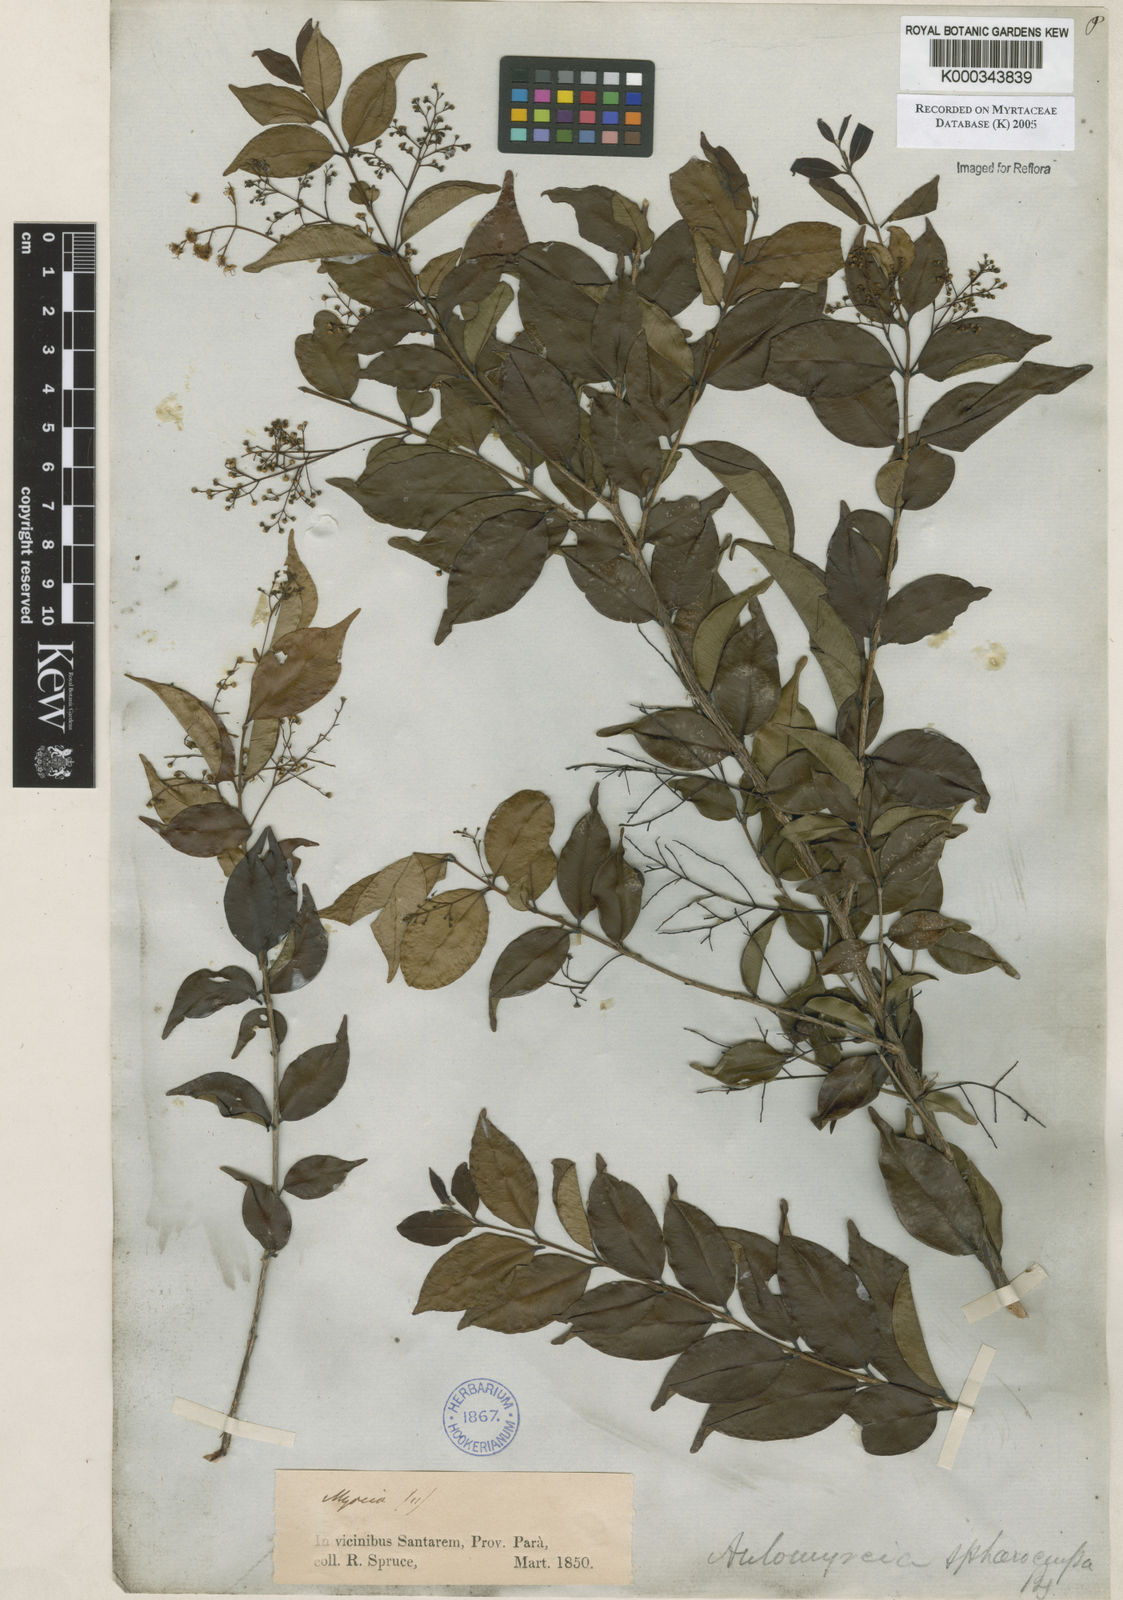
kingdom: Plantae
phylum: Tracheophyta
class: Magnoliopsida
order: Myrtales
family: Myrtaceae
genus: Myrcia
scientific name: Myrcia multiflora
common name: Pedra hume
